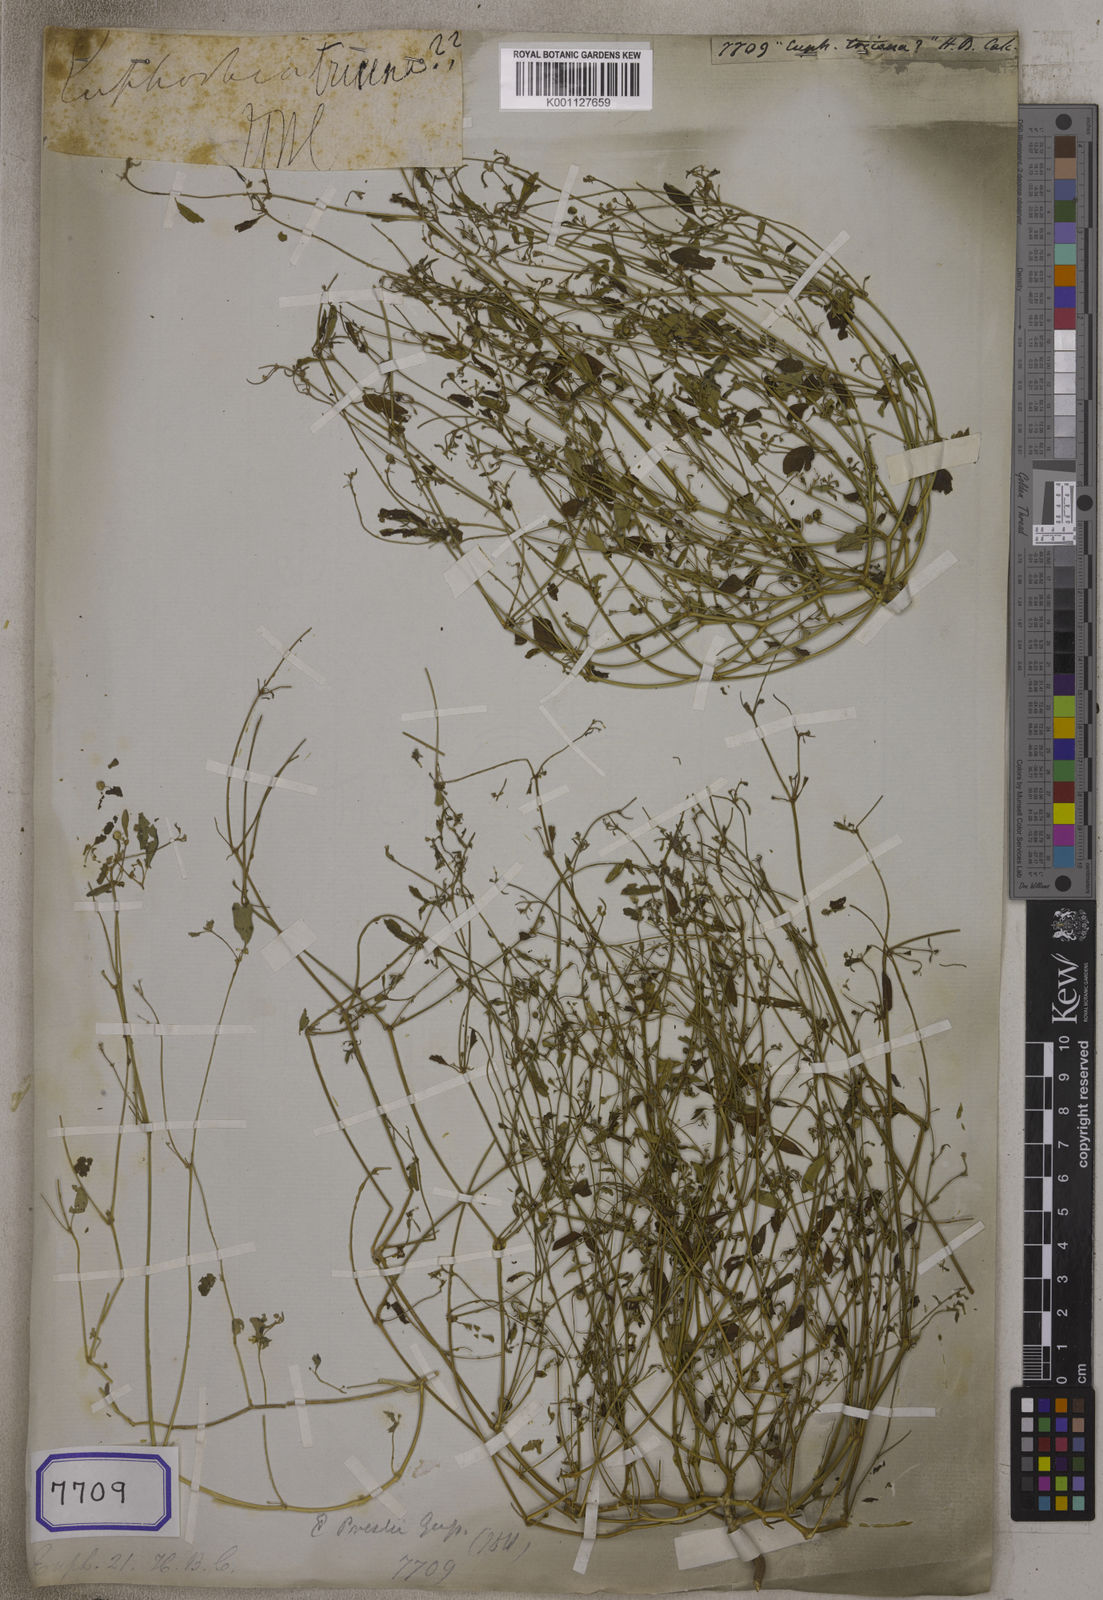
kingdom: Plantae
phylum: Tracheophyta
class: Magnoliopsida
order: Malpighiales
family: Euphorbiaceae
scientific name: Euphorbiaceae
